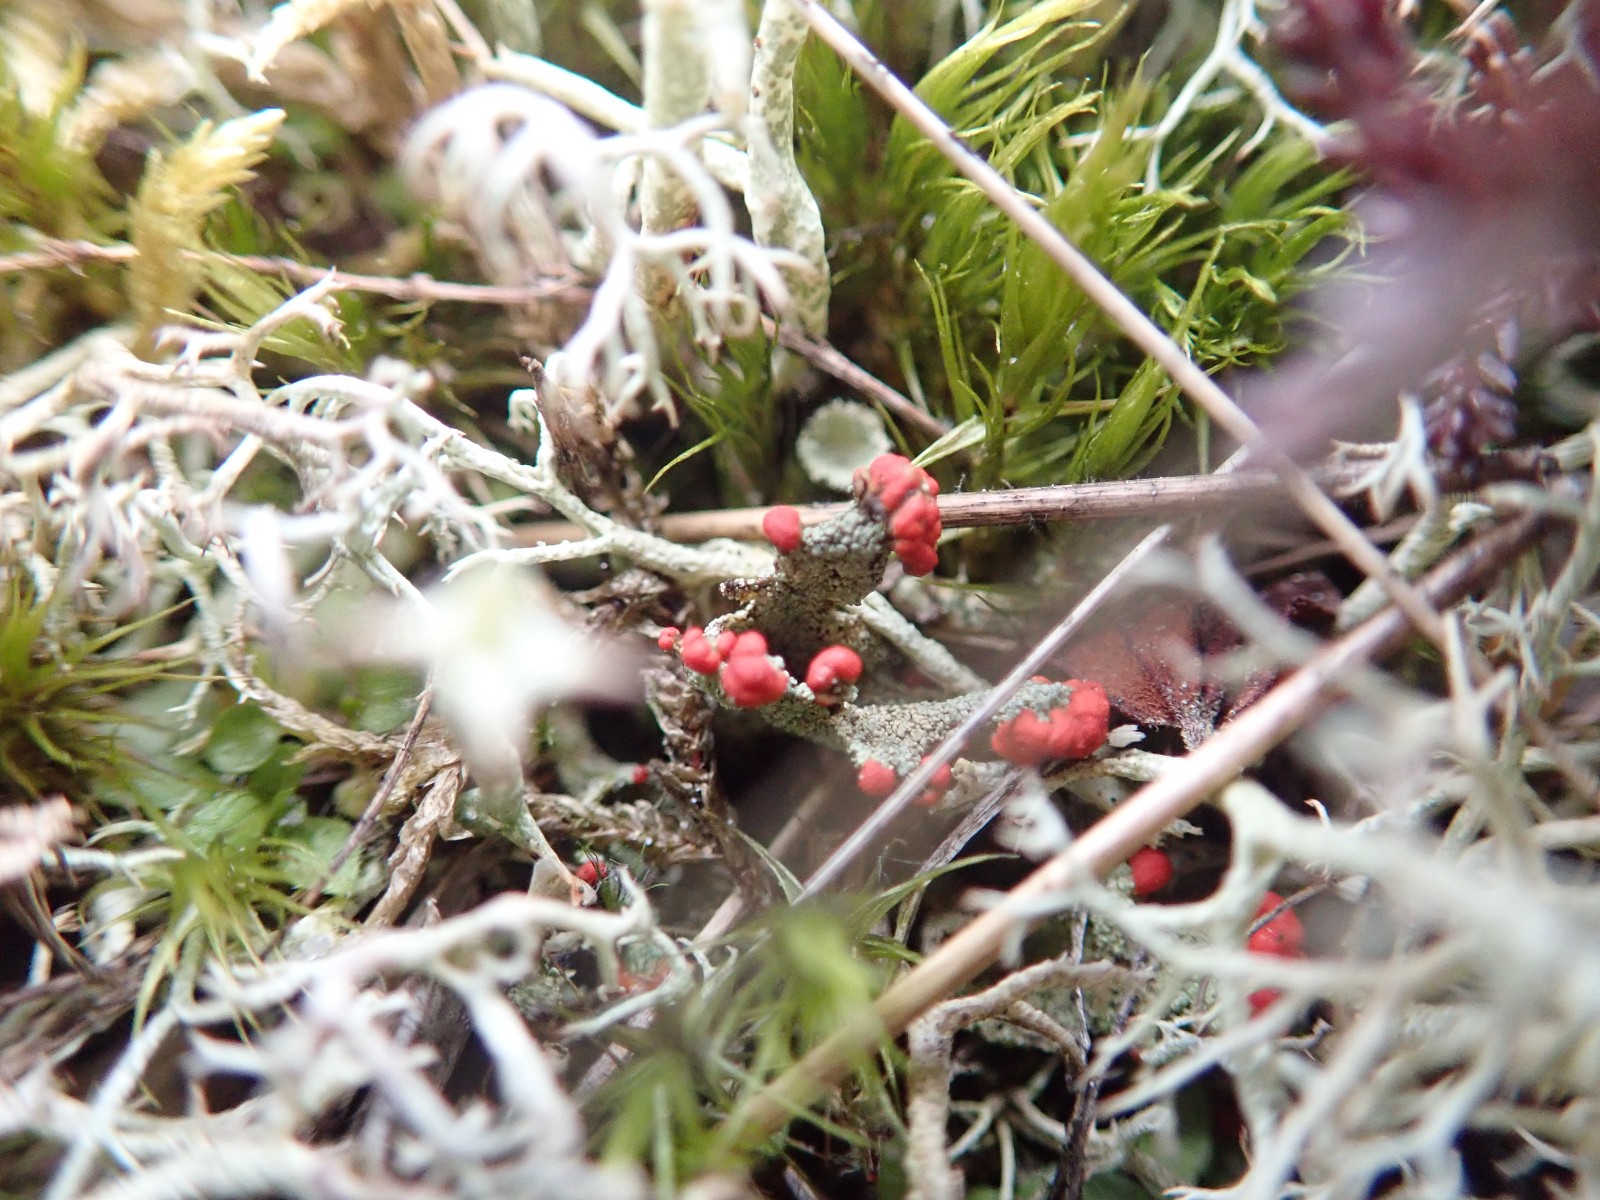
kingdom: Fungi
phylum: Ascomycota
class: Lecanoromycetes
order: Lecanorales
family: Cladoniaceae
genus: Cladonia
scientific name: Cladonia floerkeana
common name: lakrød bægerlav
